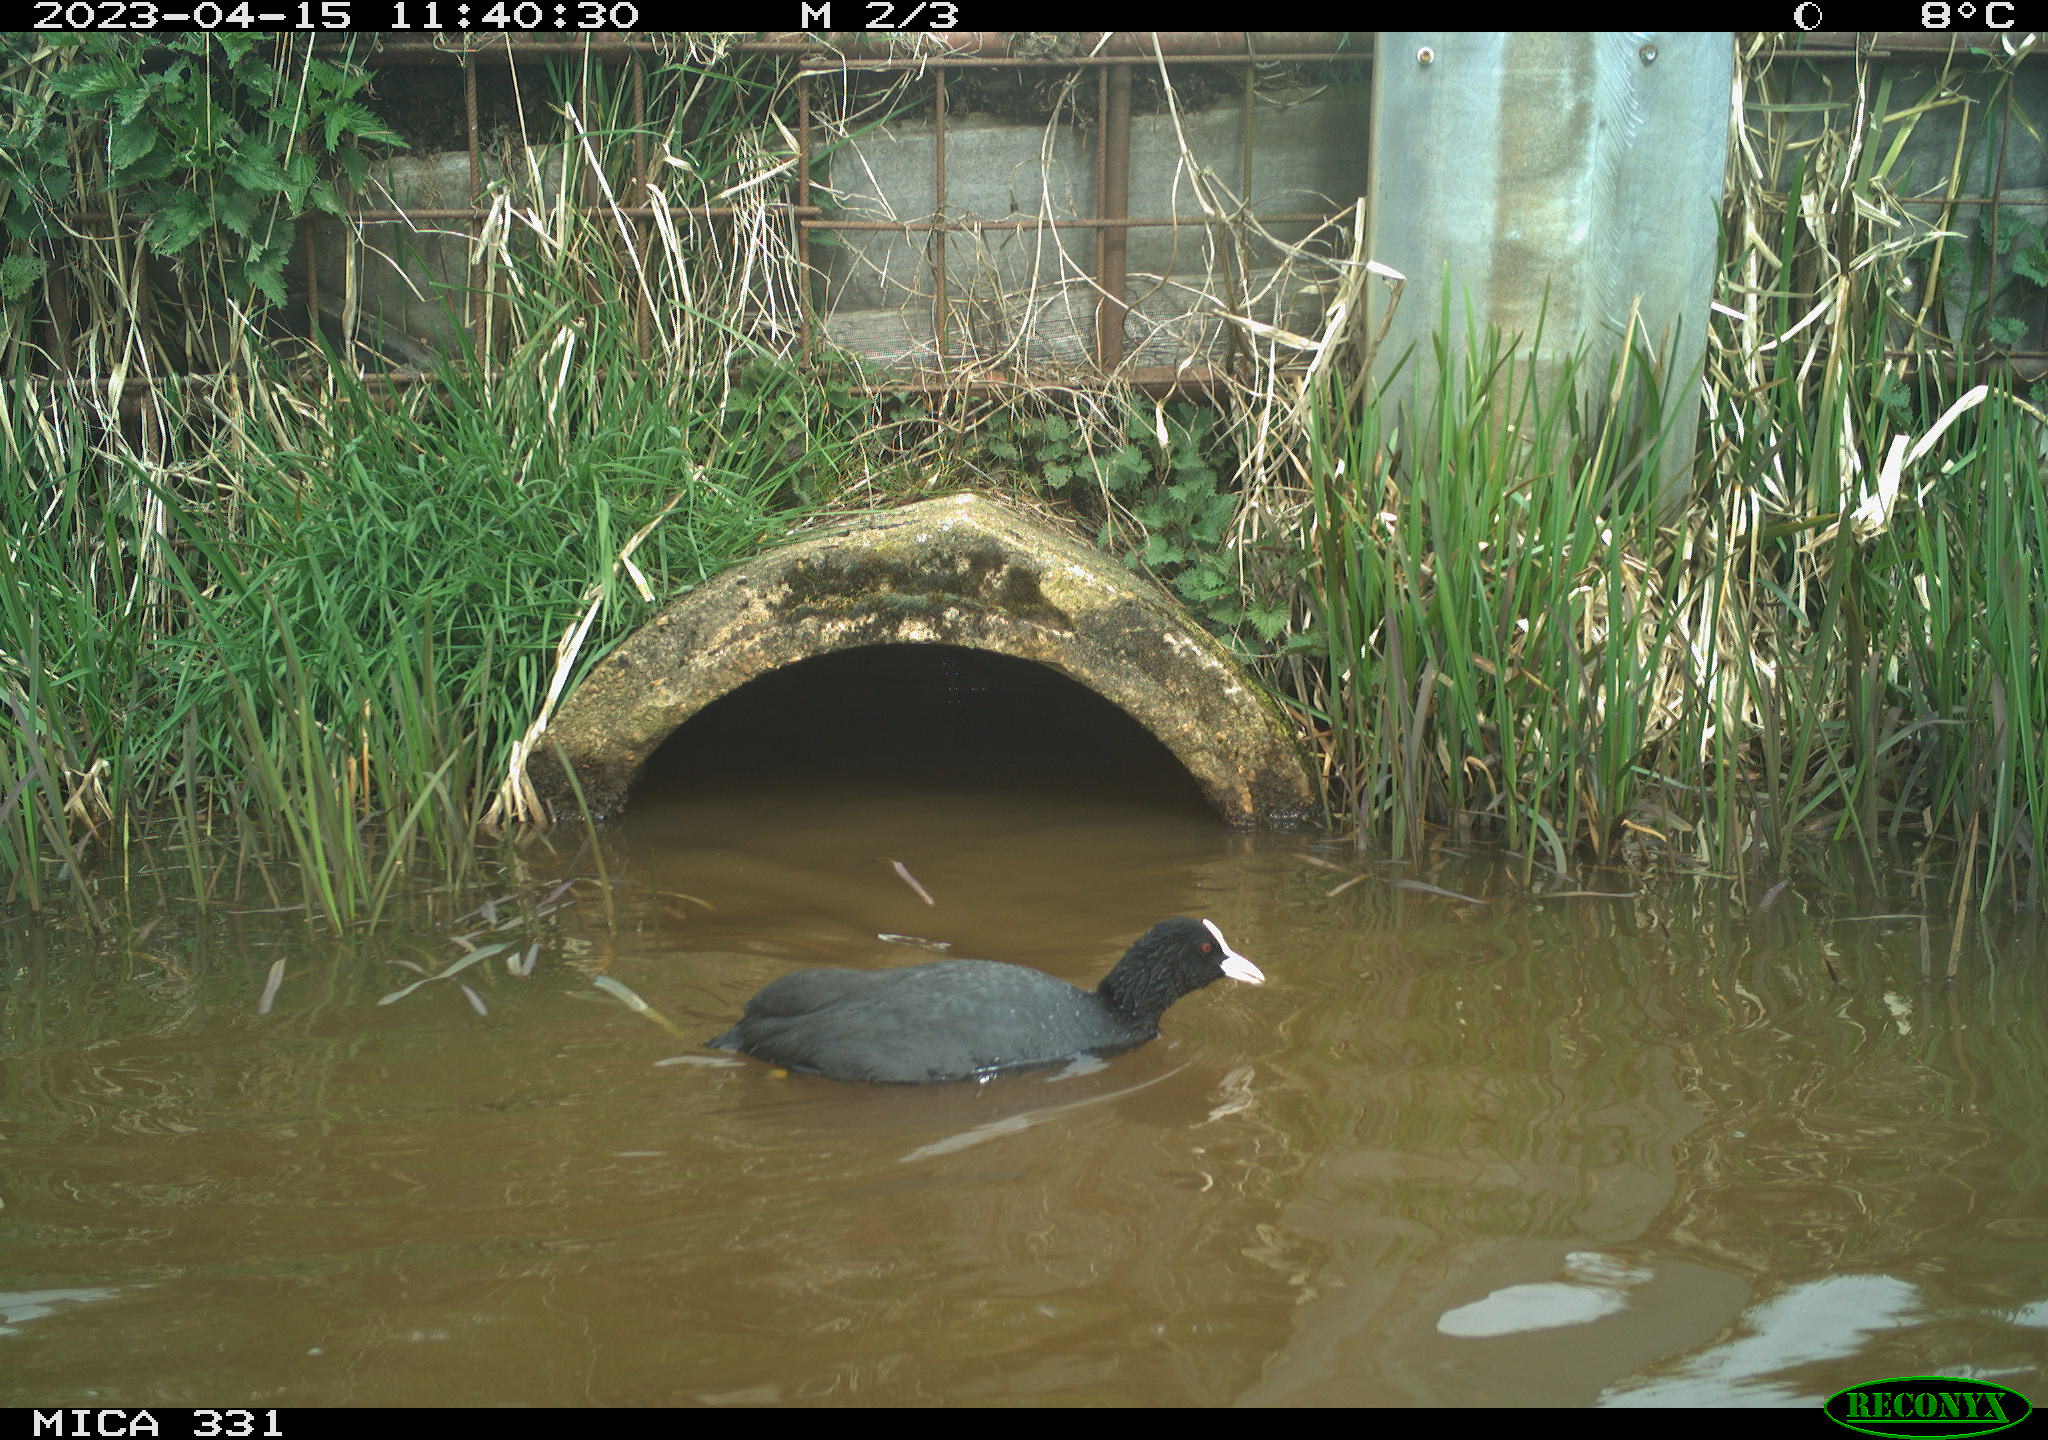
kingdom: Animalia
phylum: Chordata
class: Aves
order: Gruiformes
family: Rallidae
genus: Fulica
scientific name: Fulica atra
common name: Eurasian coot
